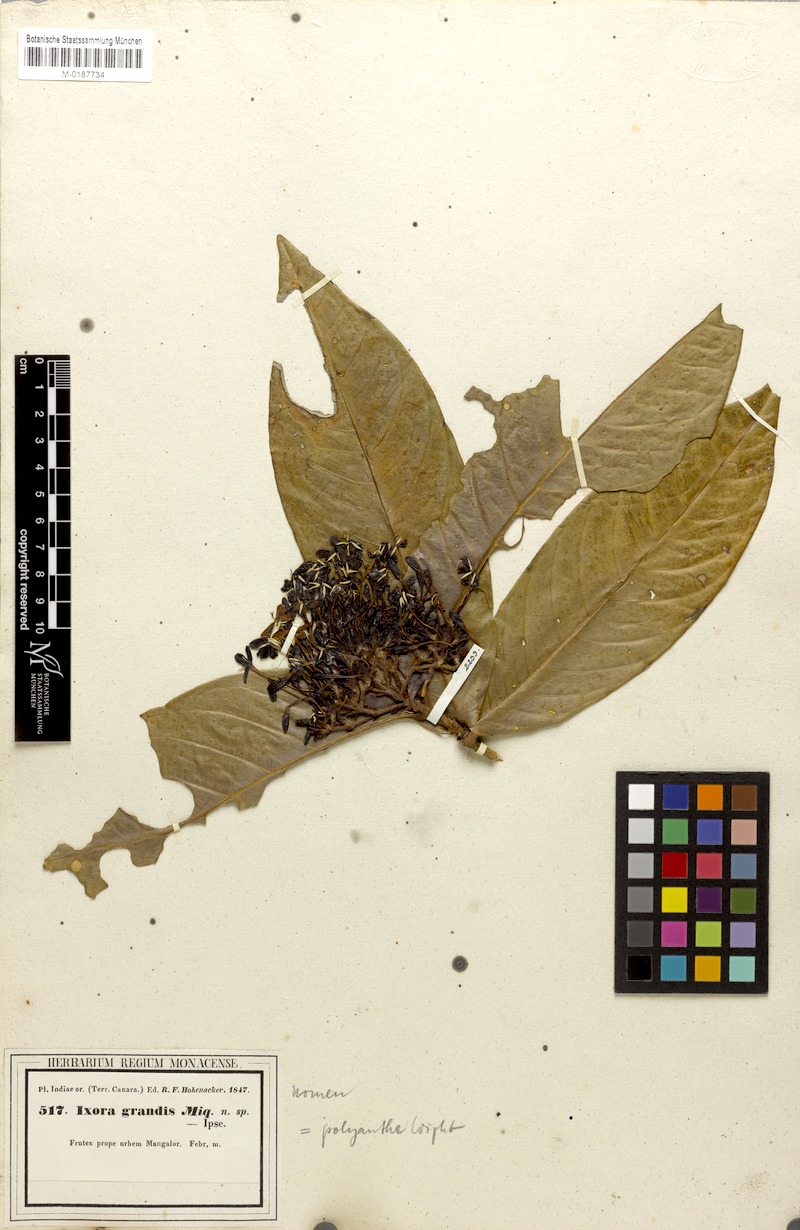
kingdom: Plantae
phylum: Tracheophyta
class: Magnoliopsida
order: Gentianales
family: Rubiaceae
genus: Ixora
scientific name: Ixora polyantha
